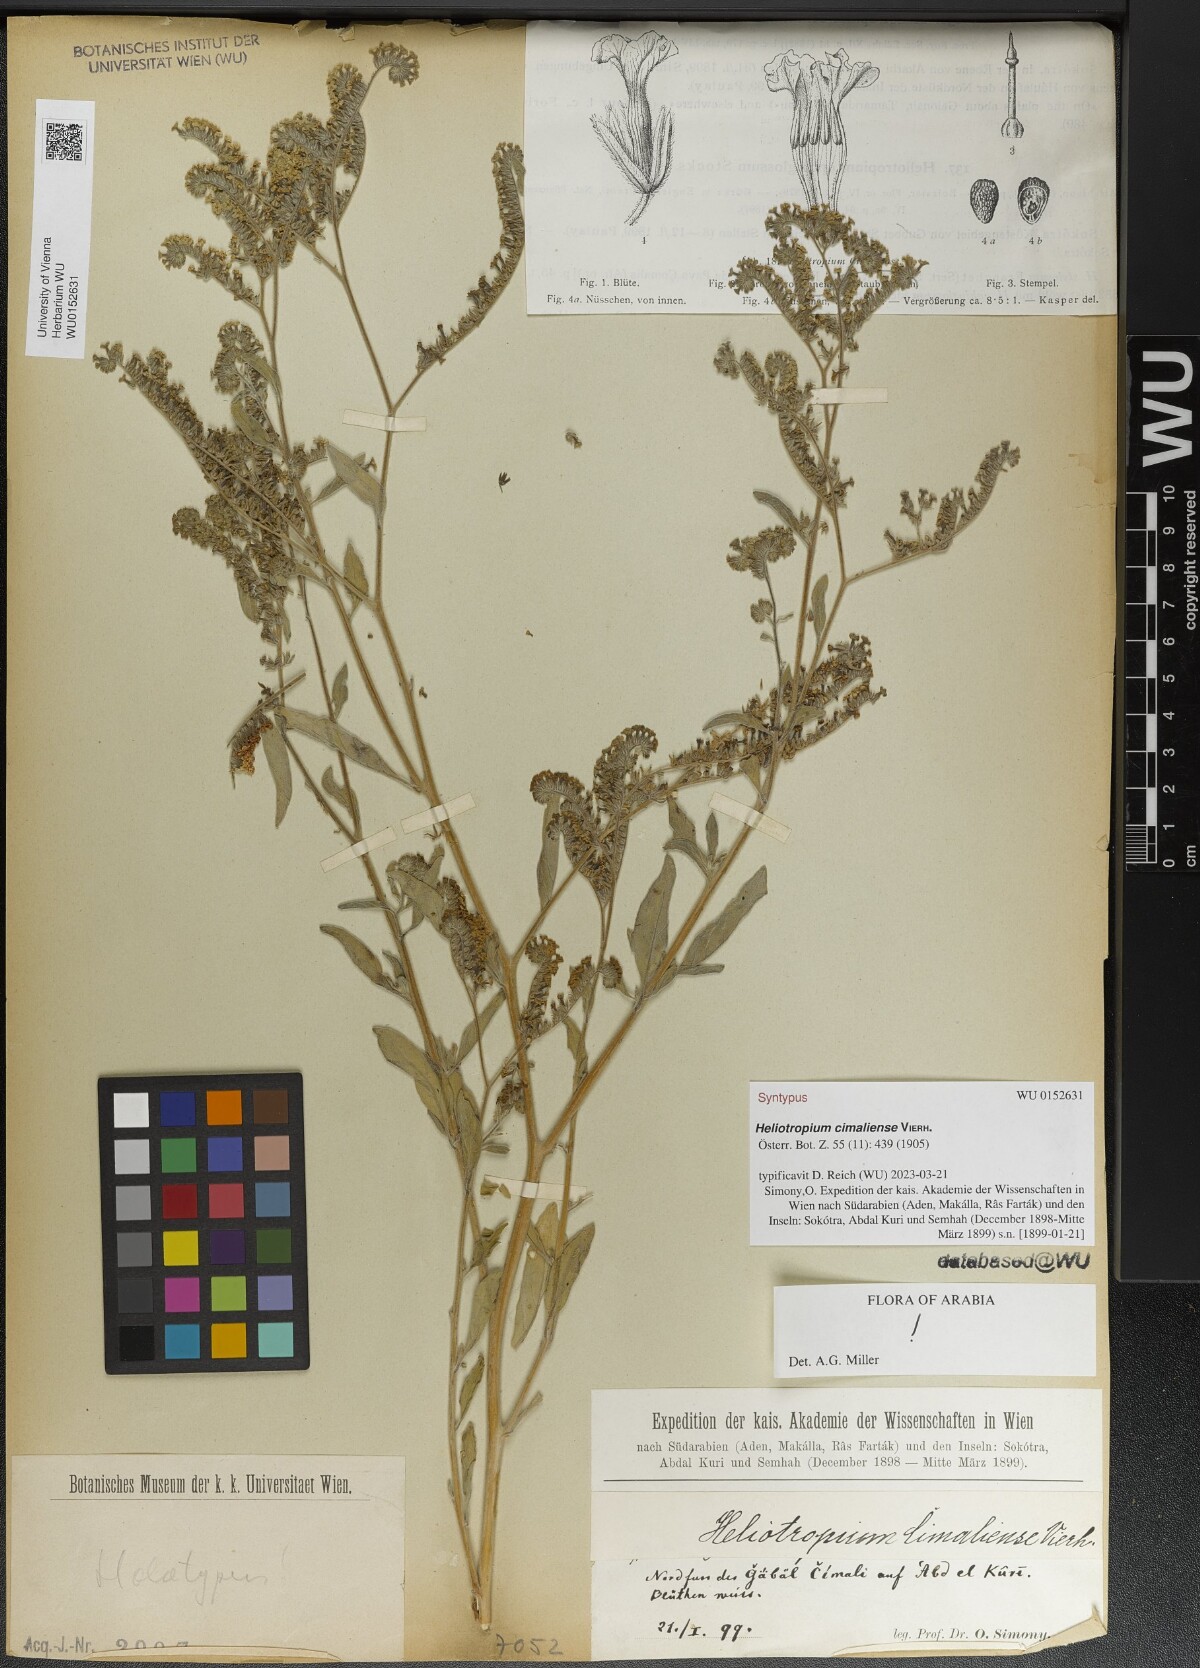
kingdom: Plantae
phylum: Tracheophyta
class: Magnoliopsida
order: Boraginales
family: Heliotropiaceae
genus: Heliotropium
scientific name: Heliotropium aegyptiacum
